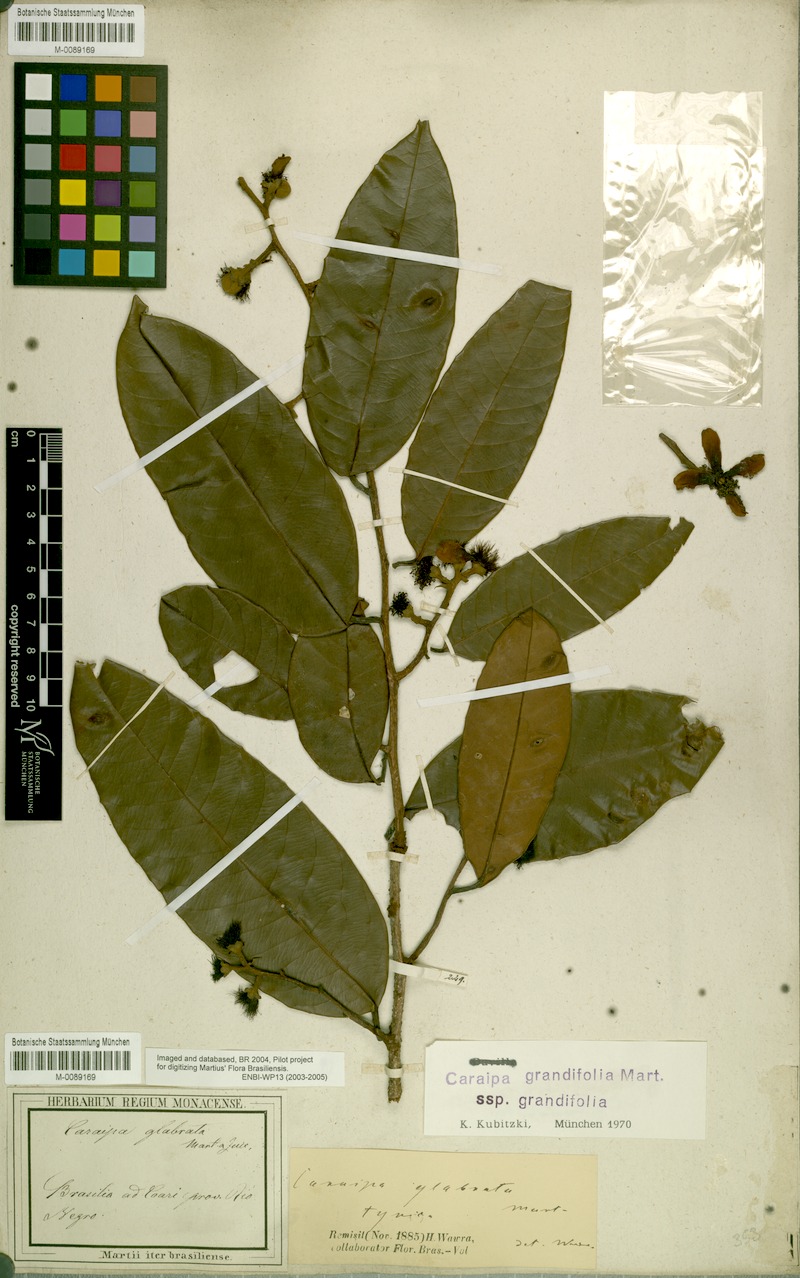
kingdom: Plantae
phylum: Tracheophyta
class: Magnoliopsida
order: Malpighiales
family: Calophyllaceae
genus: Caraipa
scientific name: Caraipa grandifolia
